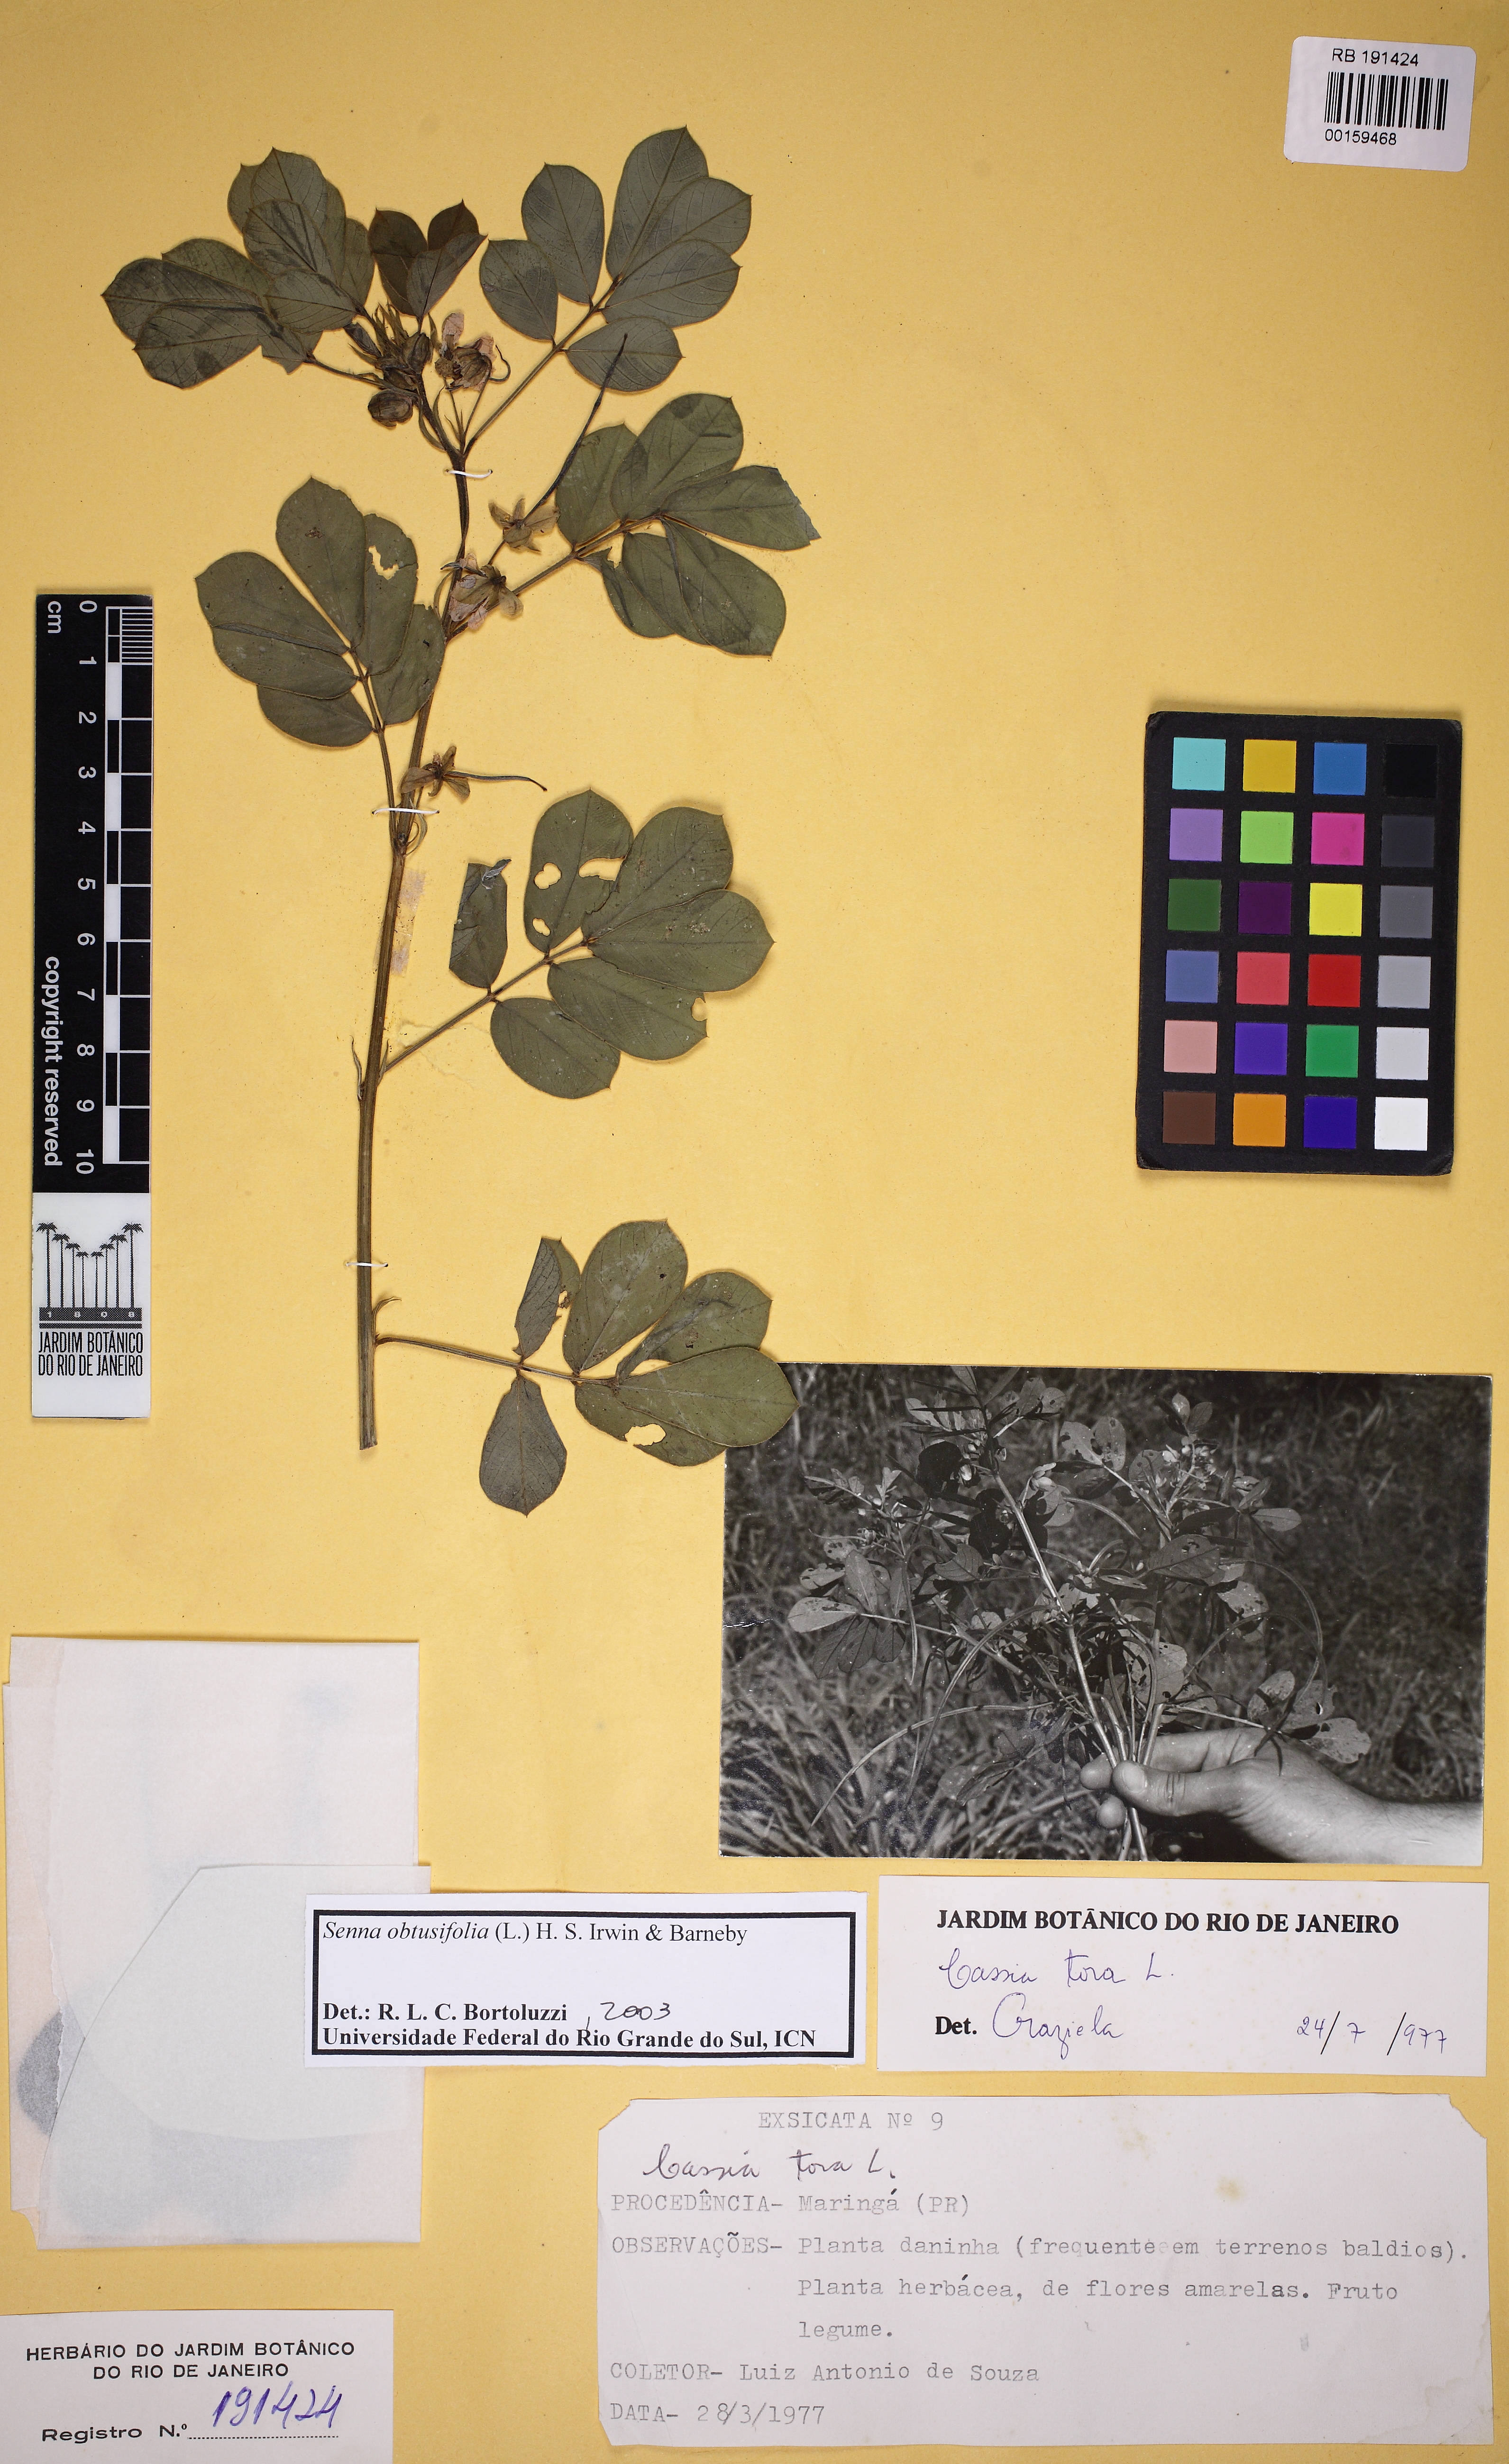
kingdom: Plantae
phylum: Tracheophyta
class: Magnoliopsida
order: Fabales
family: Fabaceae
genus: Senna
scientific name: Senna obtusifolia
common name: Java-bean
